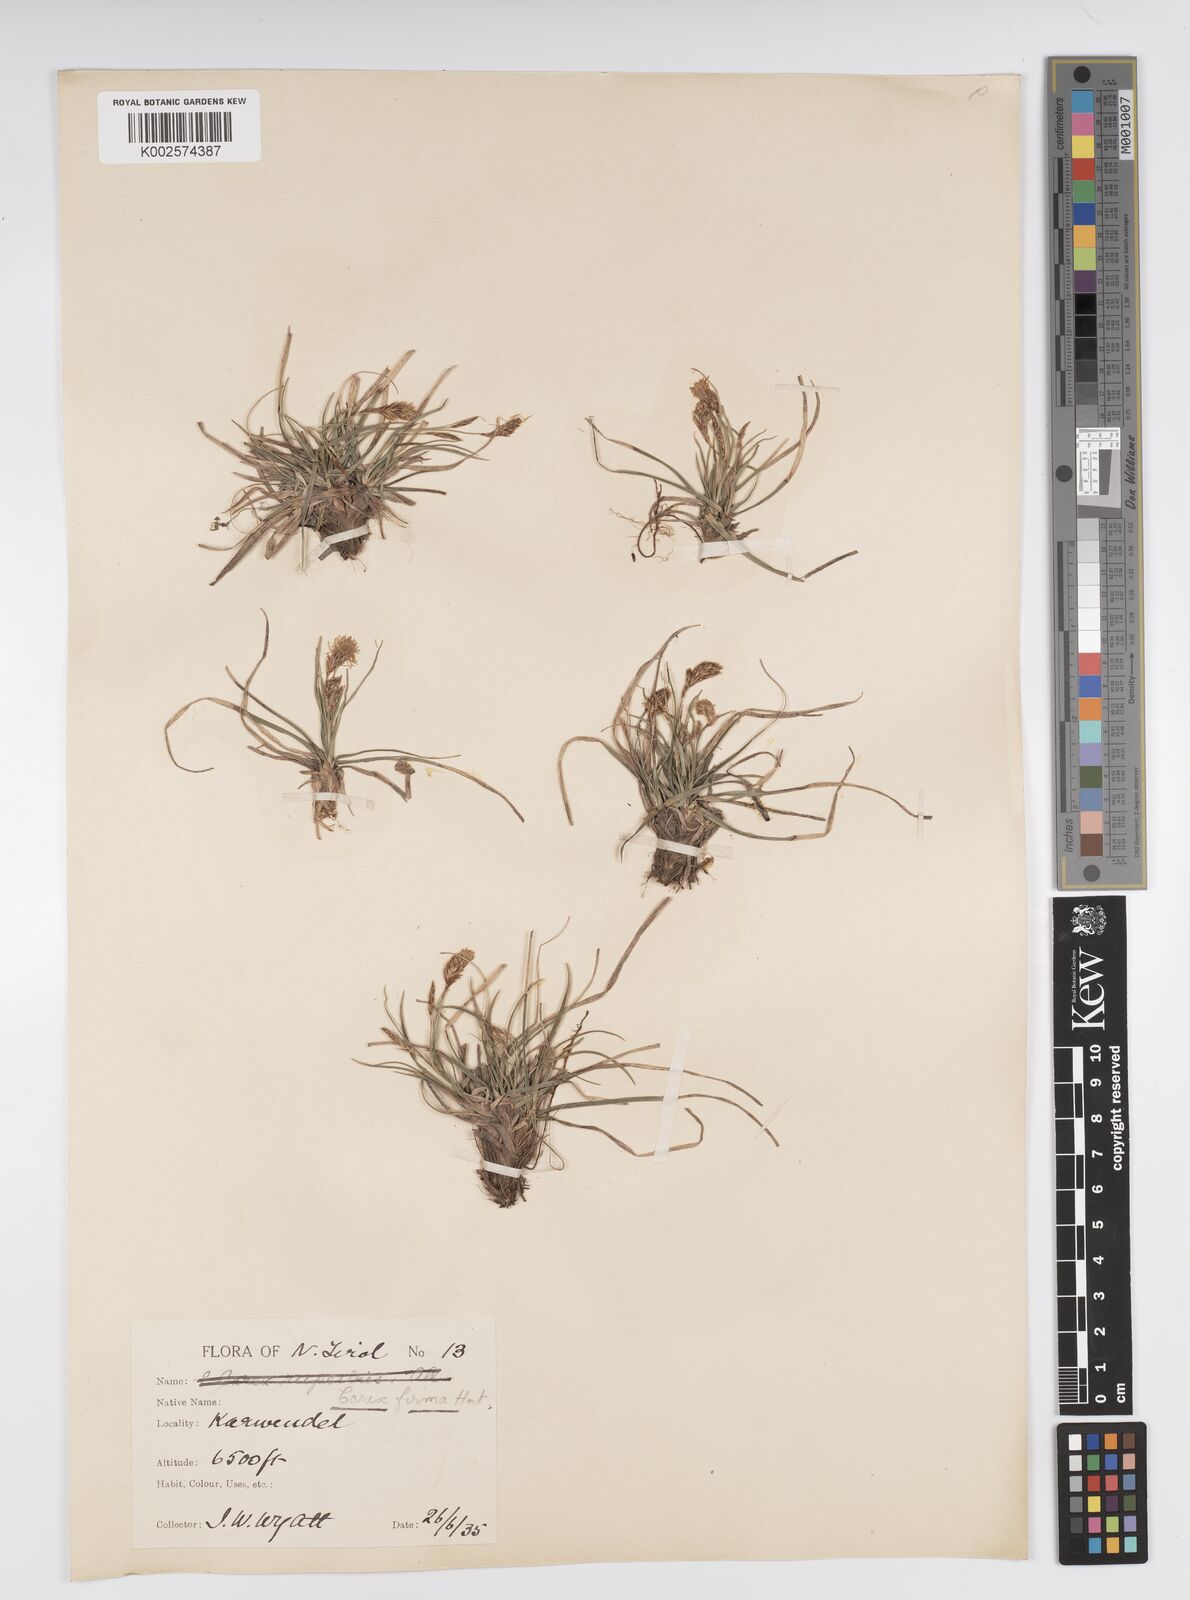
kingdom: Plantae
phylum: Tracheophyta
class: Liliopsida
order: Poales
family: Cyperaceae
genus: Carex
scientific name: Carex firma
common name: Dwarf pillow sedge
